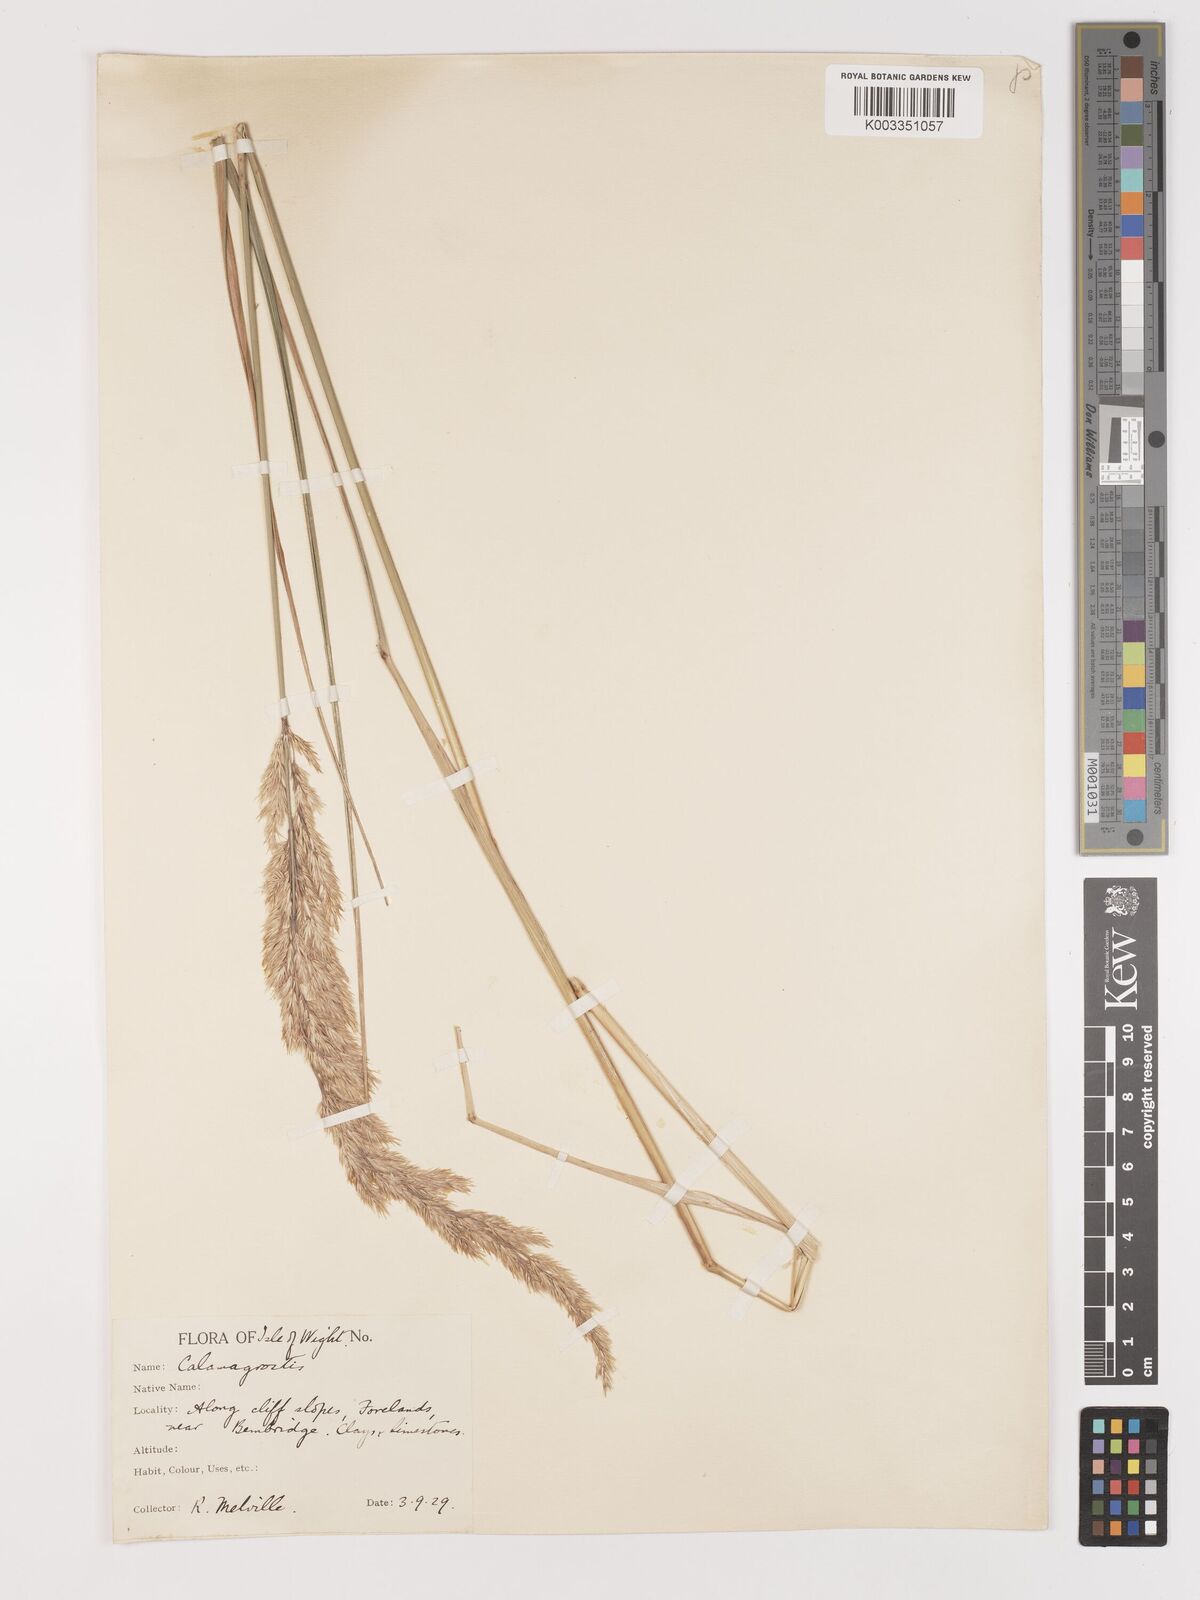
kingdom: Plantae
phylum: Tracheophyta
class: Liliopsida
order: Poales
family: Poaceae
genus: Calamagrostis
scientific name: Calamagrostis epigejos
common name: Wood small-reed
